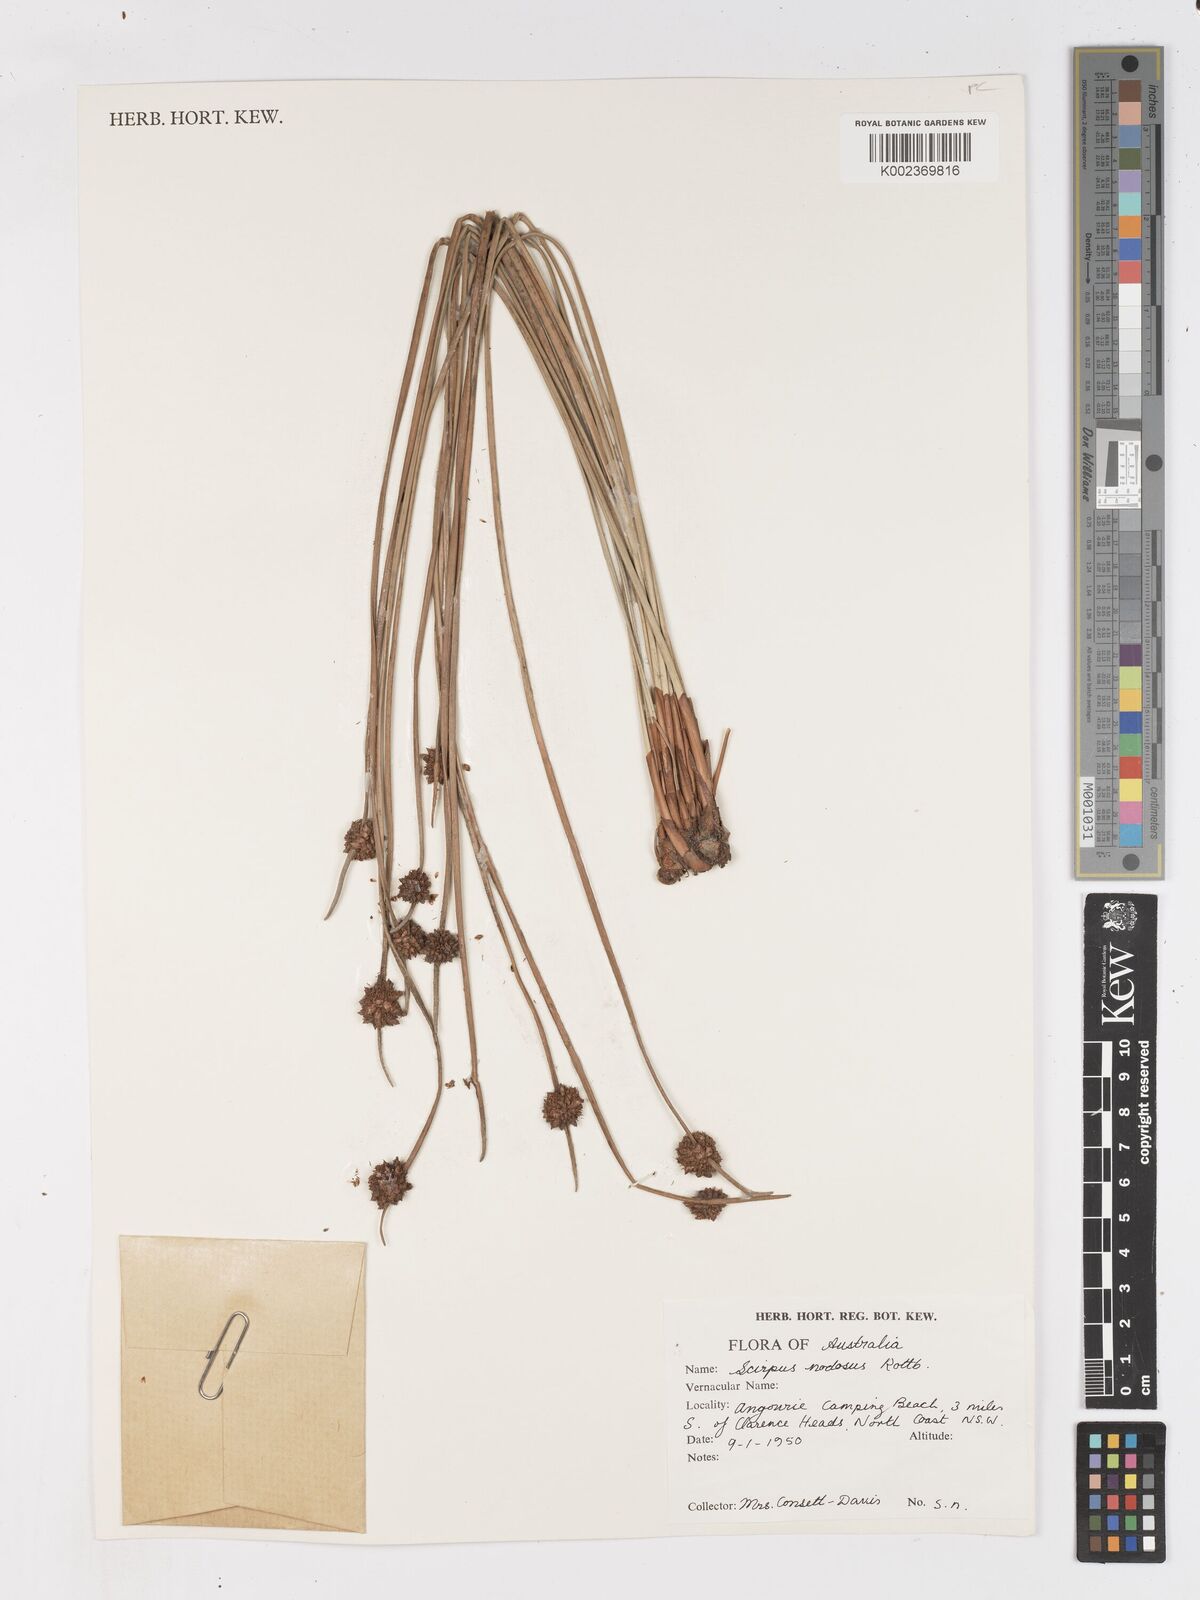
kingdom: Plantae
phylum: Tracheophyta
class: Liliopsida
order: Poales
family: Cyperaceae
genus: Ficinia
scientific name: Ficinia nodosa
